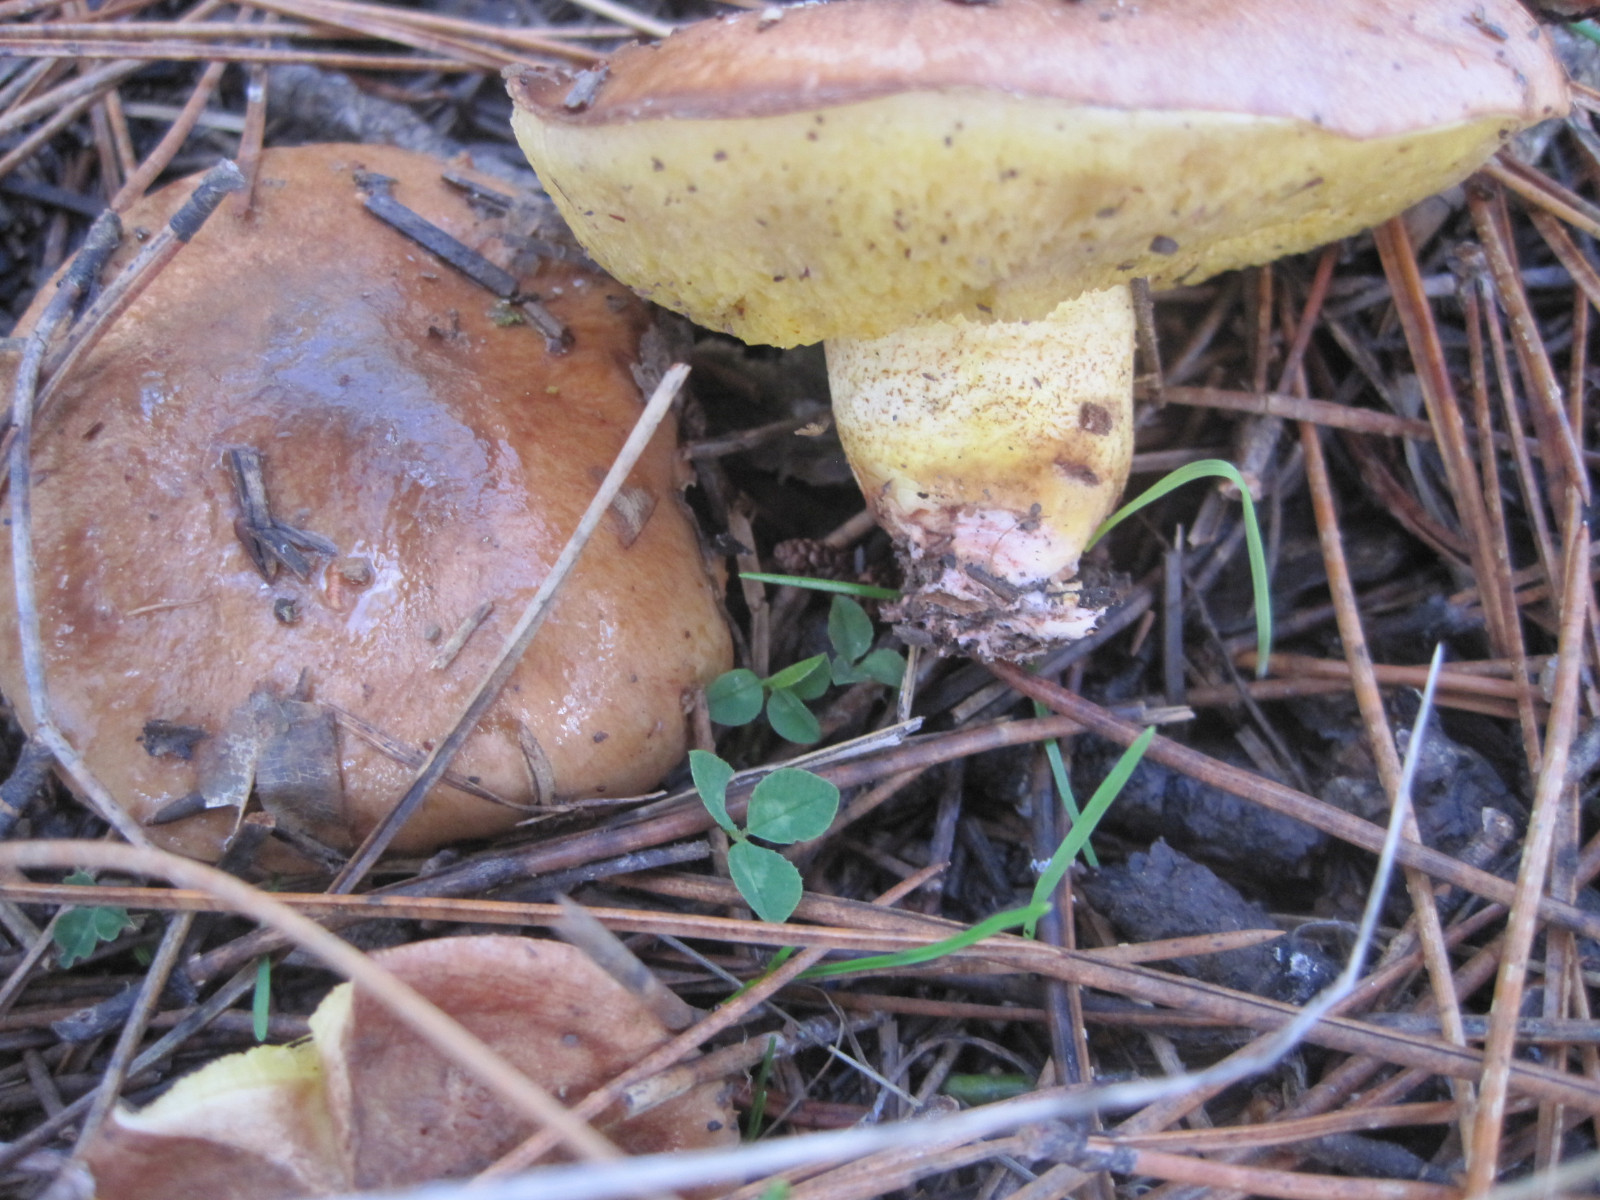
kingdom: Fungi
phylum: Basidiomycota
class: Agaricomycetes
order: Boletales
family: Suillaceae
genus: Suillus
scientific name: Suillus collinitus
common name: rosafodet slimrørhat
